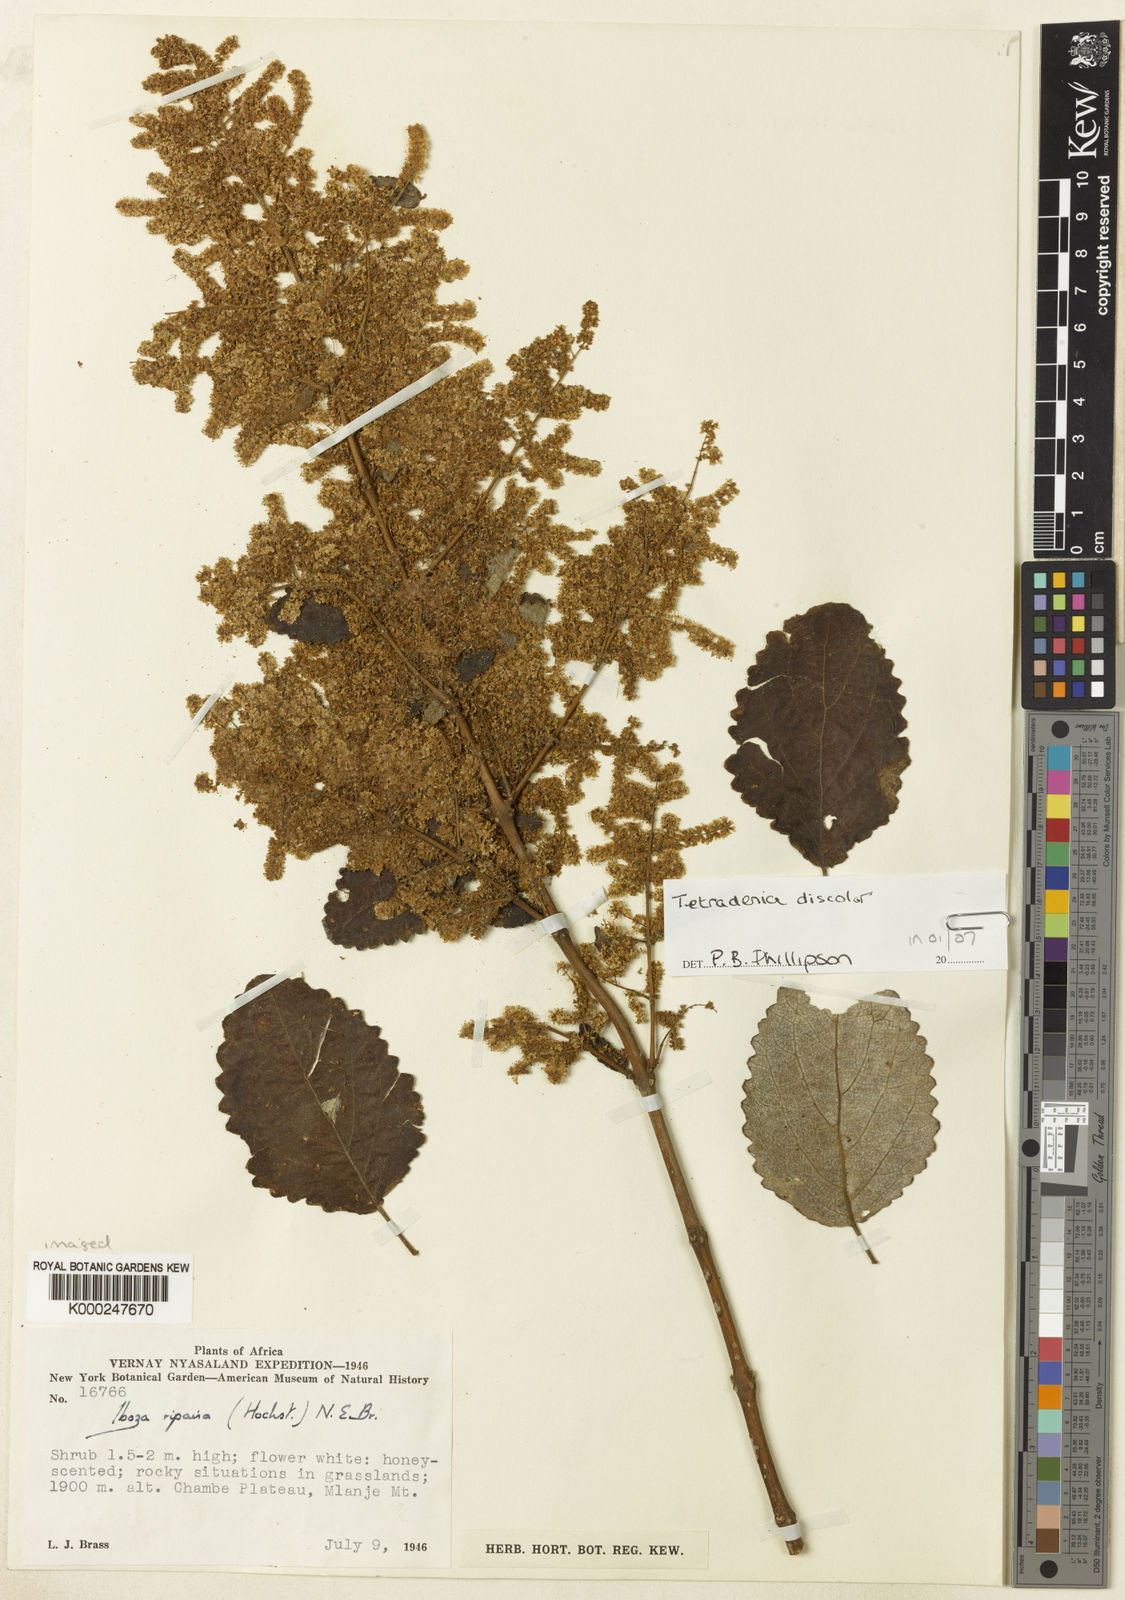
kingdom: Plantae
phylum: Tracheophyta
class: Magnoliopsida
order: Lamiales
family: Lamiaceae
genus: Tetradenia
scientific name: Tetradenia discolor
